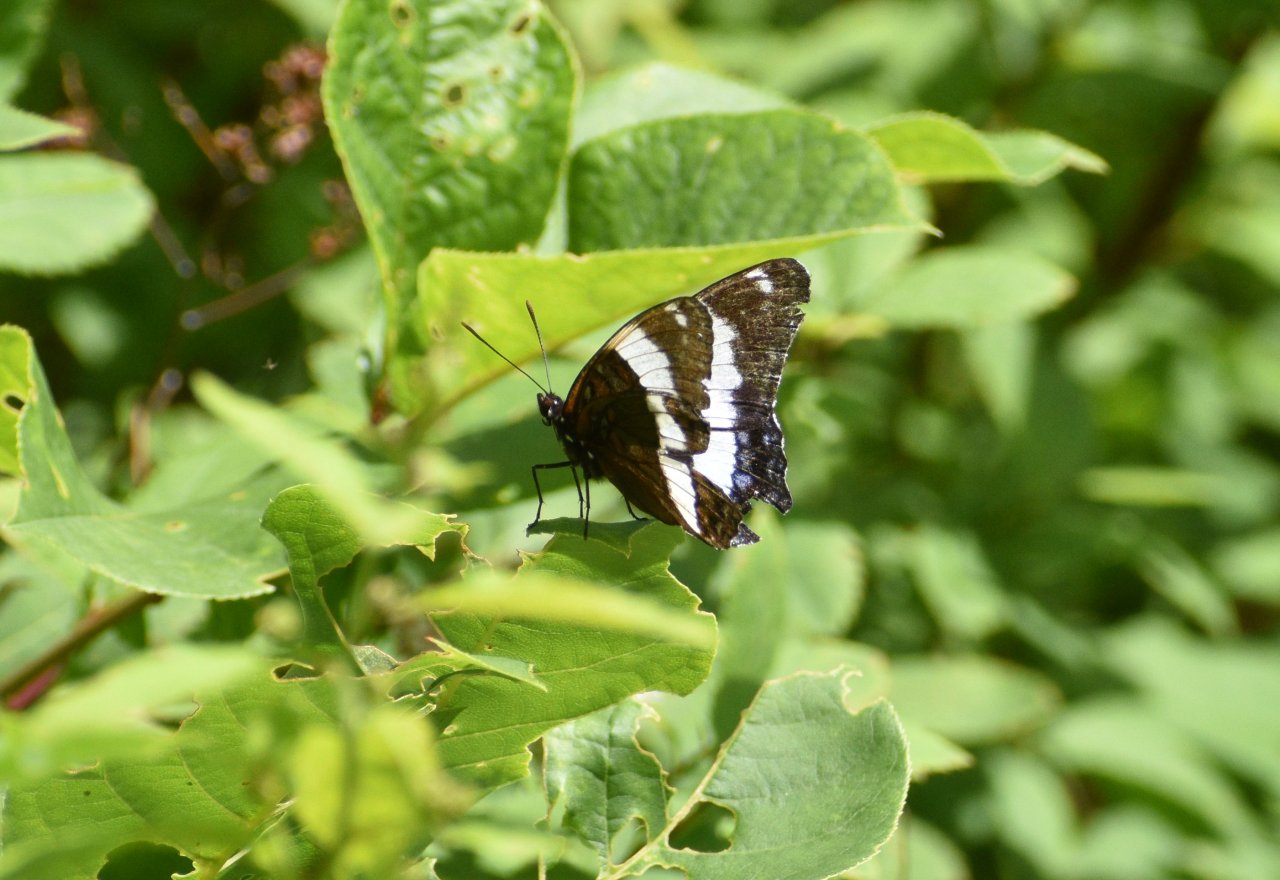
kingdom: Animalia
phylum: Arthropoda
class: Insecta
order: Lepidoptera
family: Nymphalidae
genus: Limenitis
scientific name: Limenitis arthemis
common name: Red-spotted Admiral
